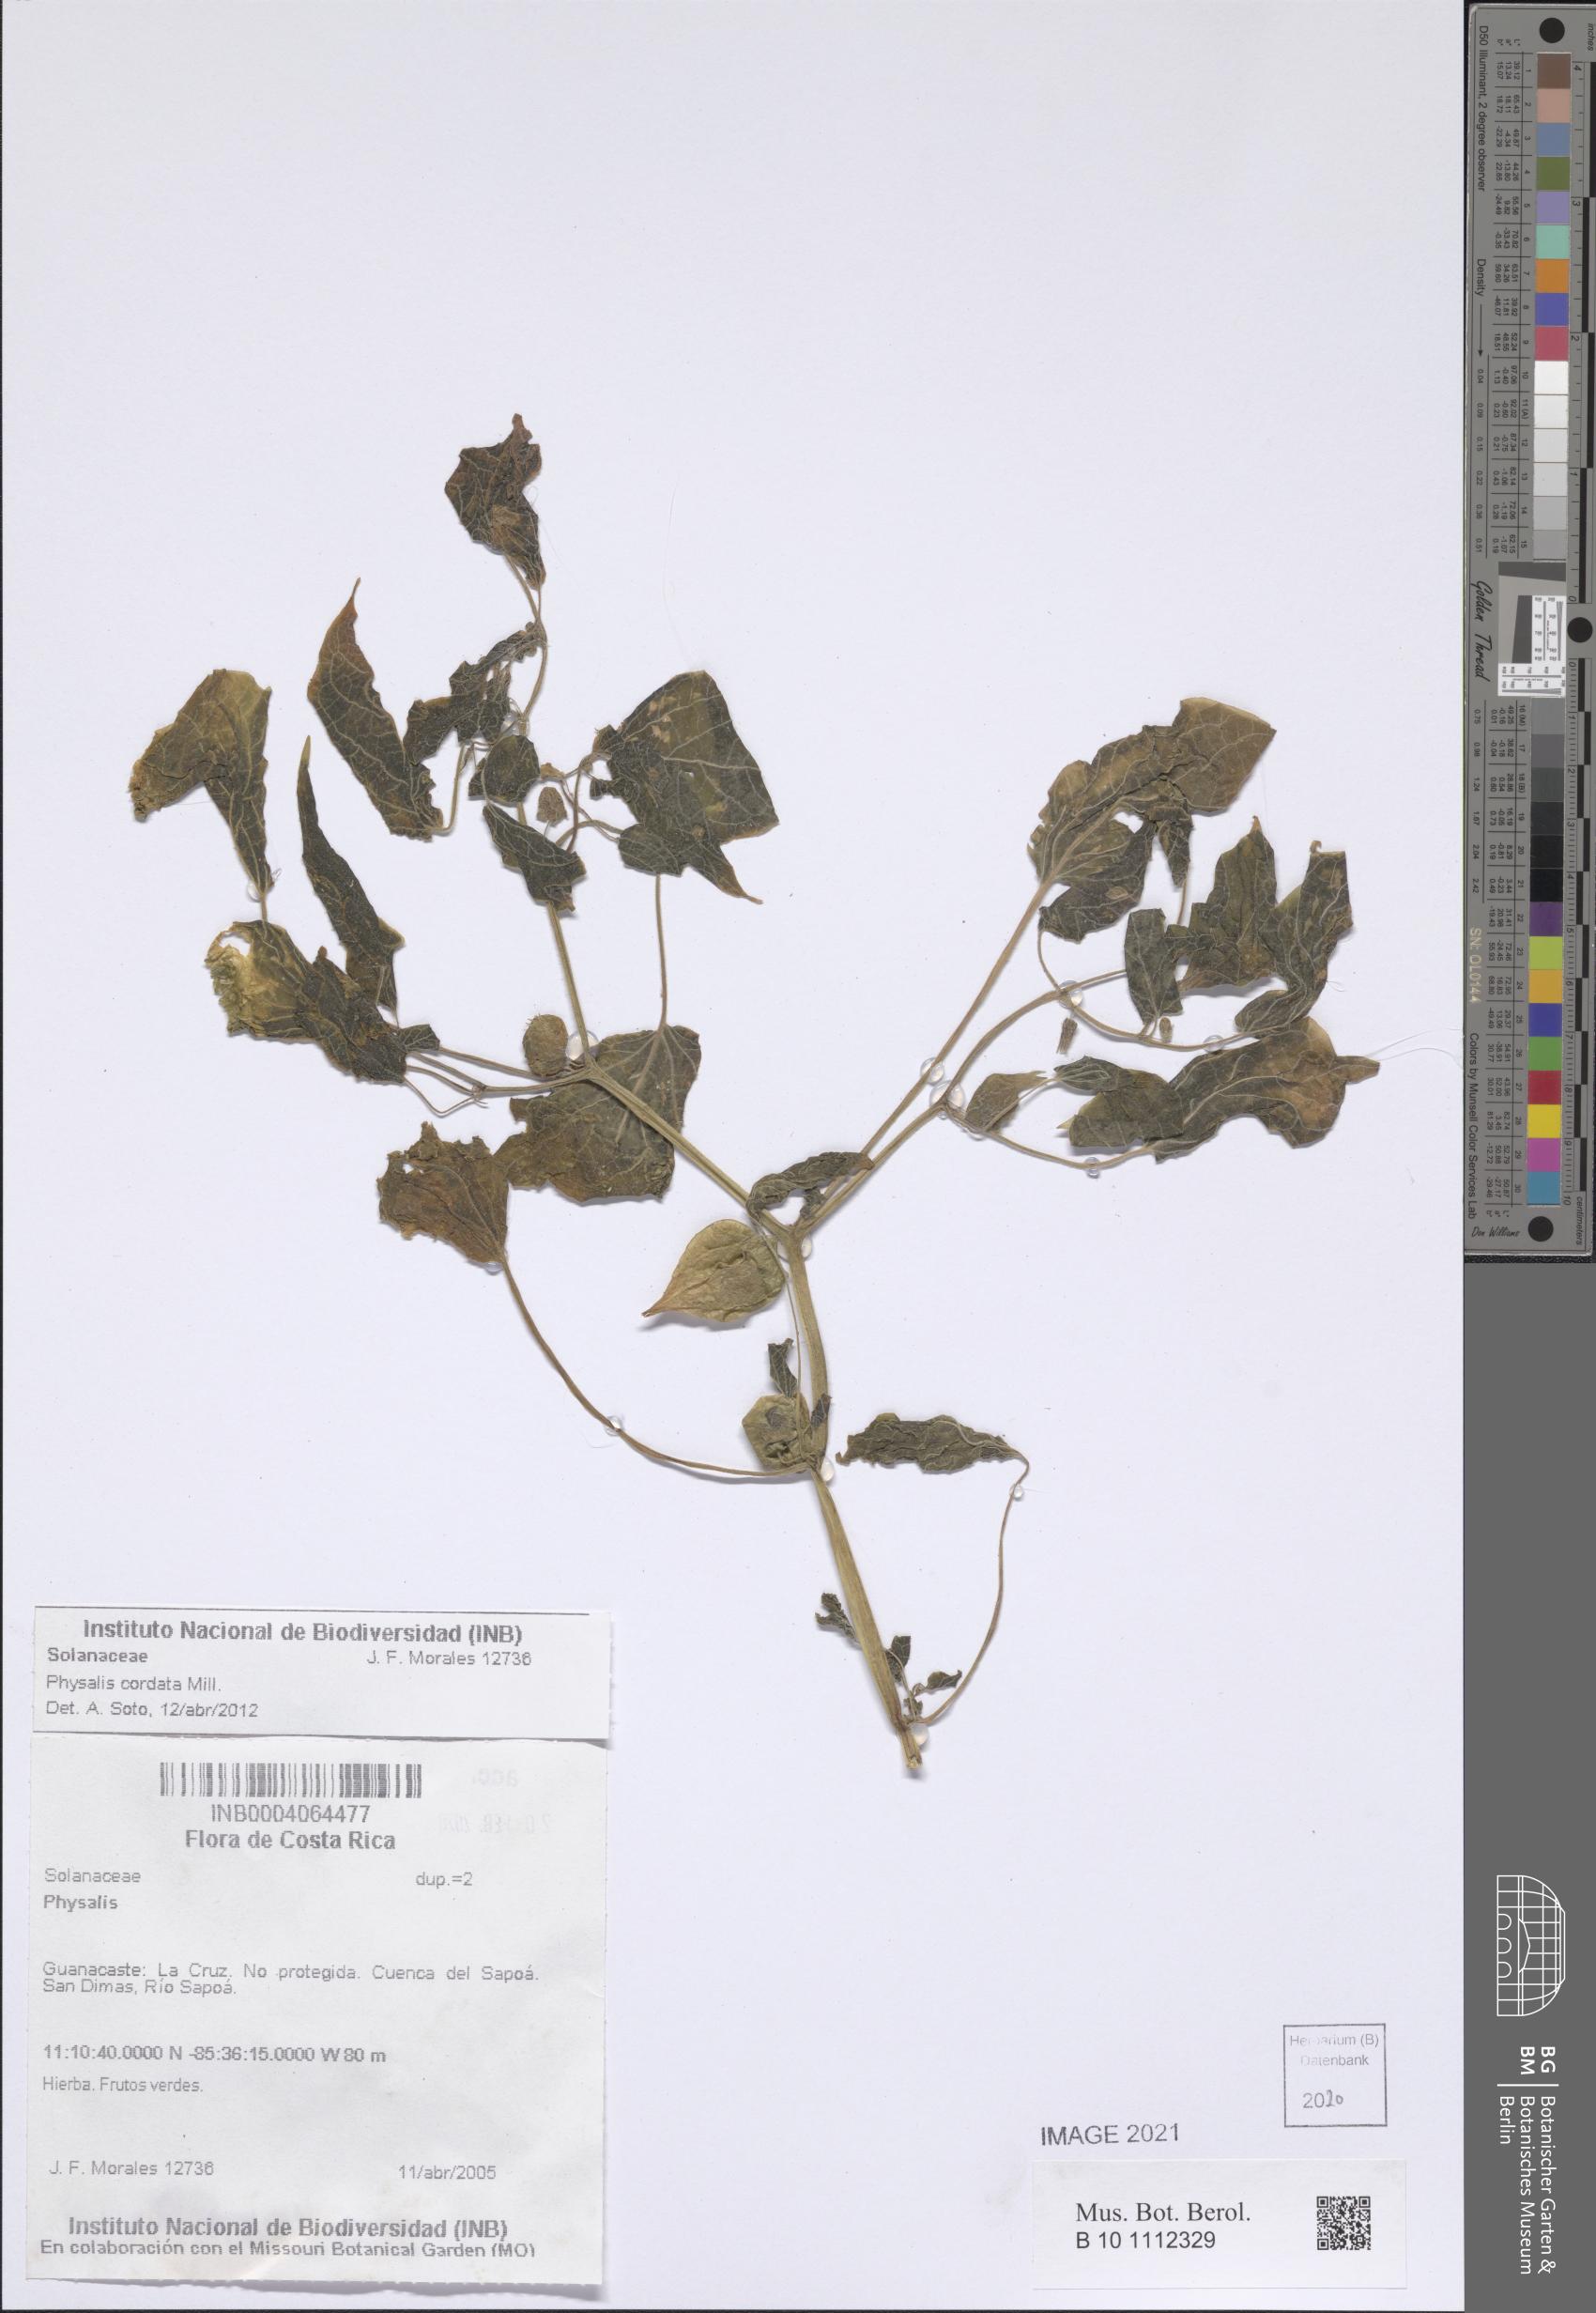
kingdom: Plantae
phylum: Tracheophyta
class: Magnoliopsida
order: Solanales
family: Solanaceae
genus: Physalis
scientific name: Physalis cordata
